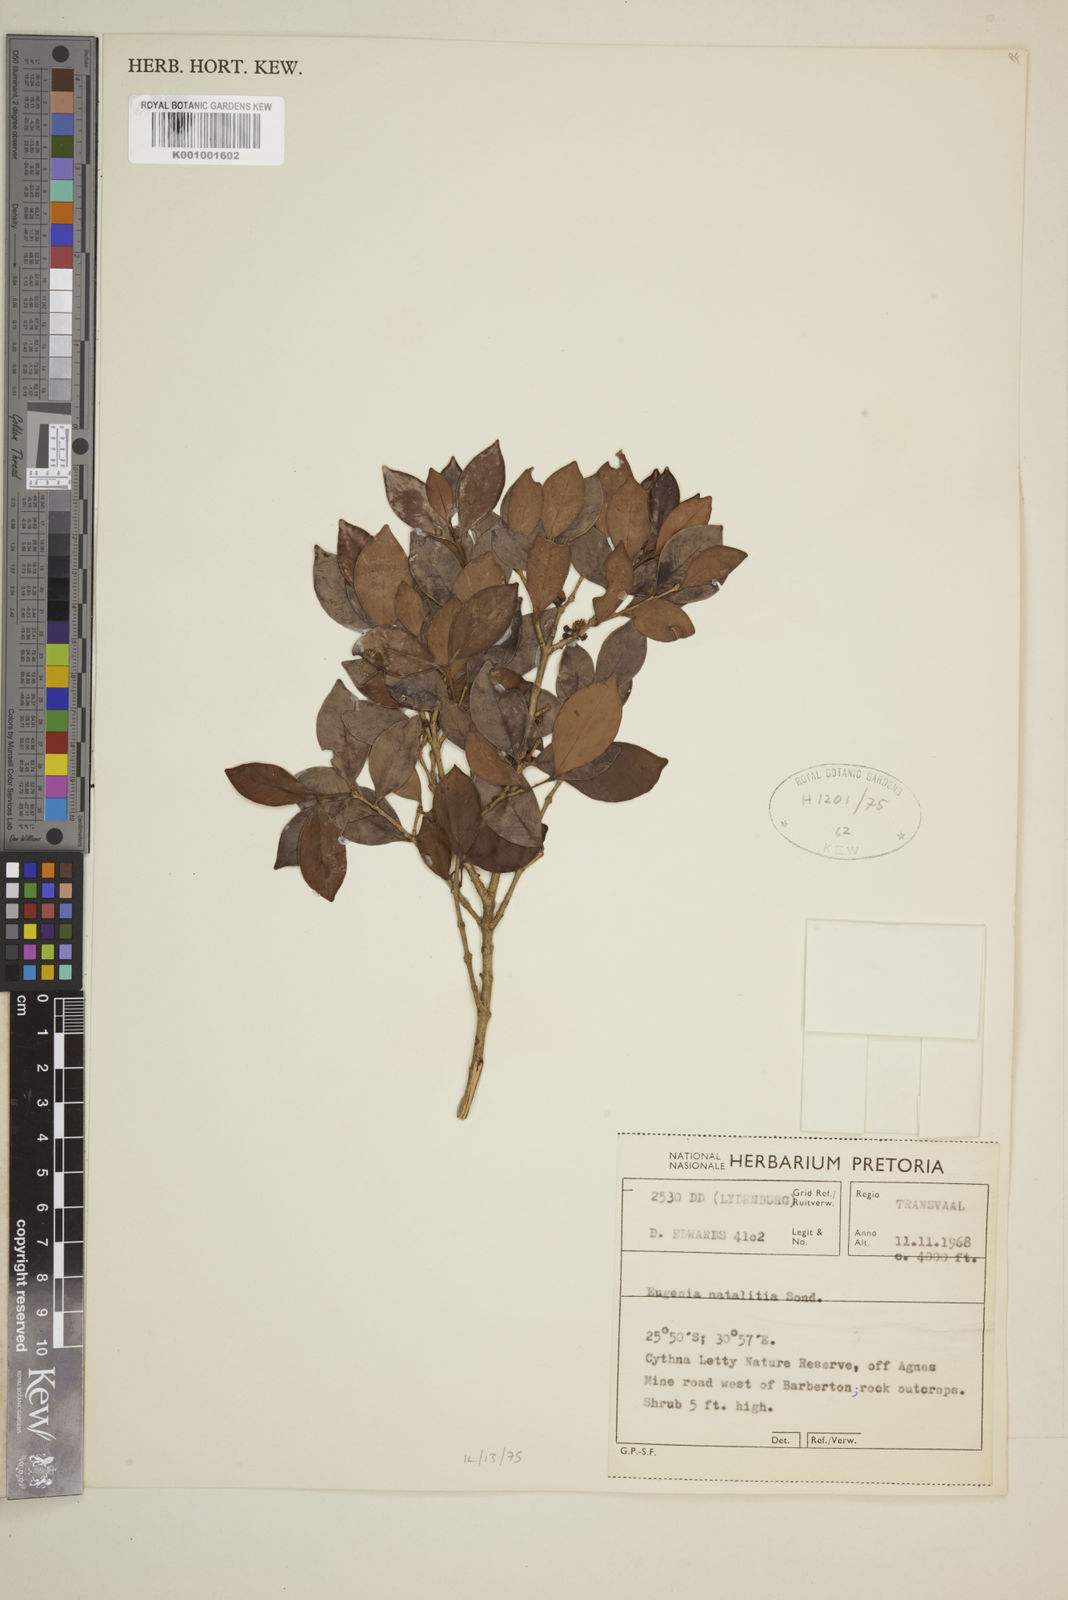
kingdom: Plantae
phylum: Tracheophyta
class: Magnoliopsida
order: Myrtales
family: Myrtaceae
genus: Eugenia
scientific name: Eugenia natalitia
